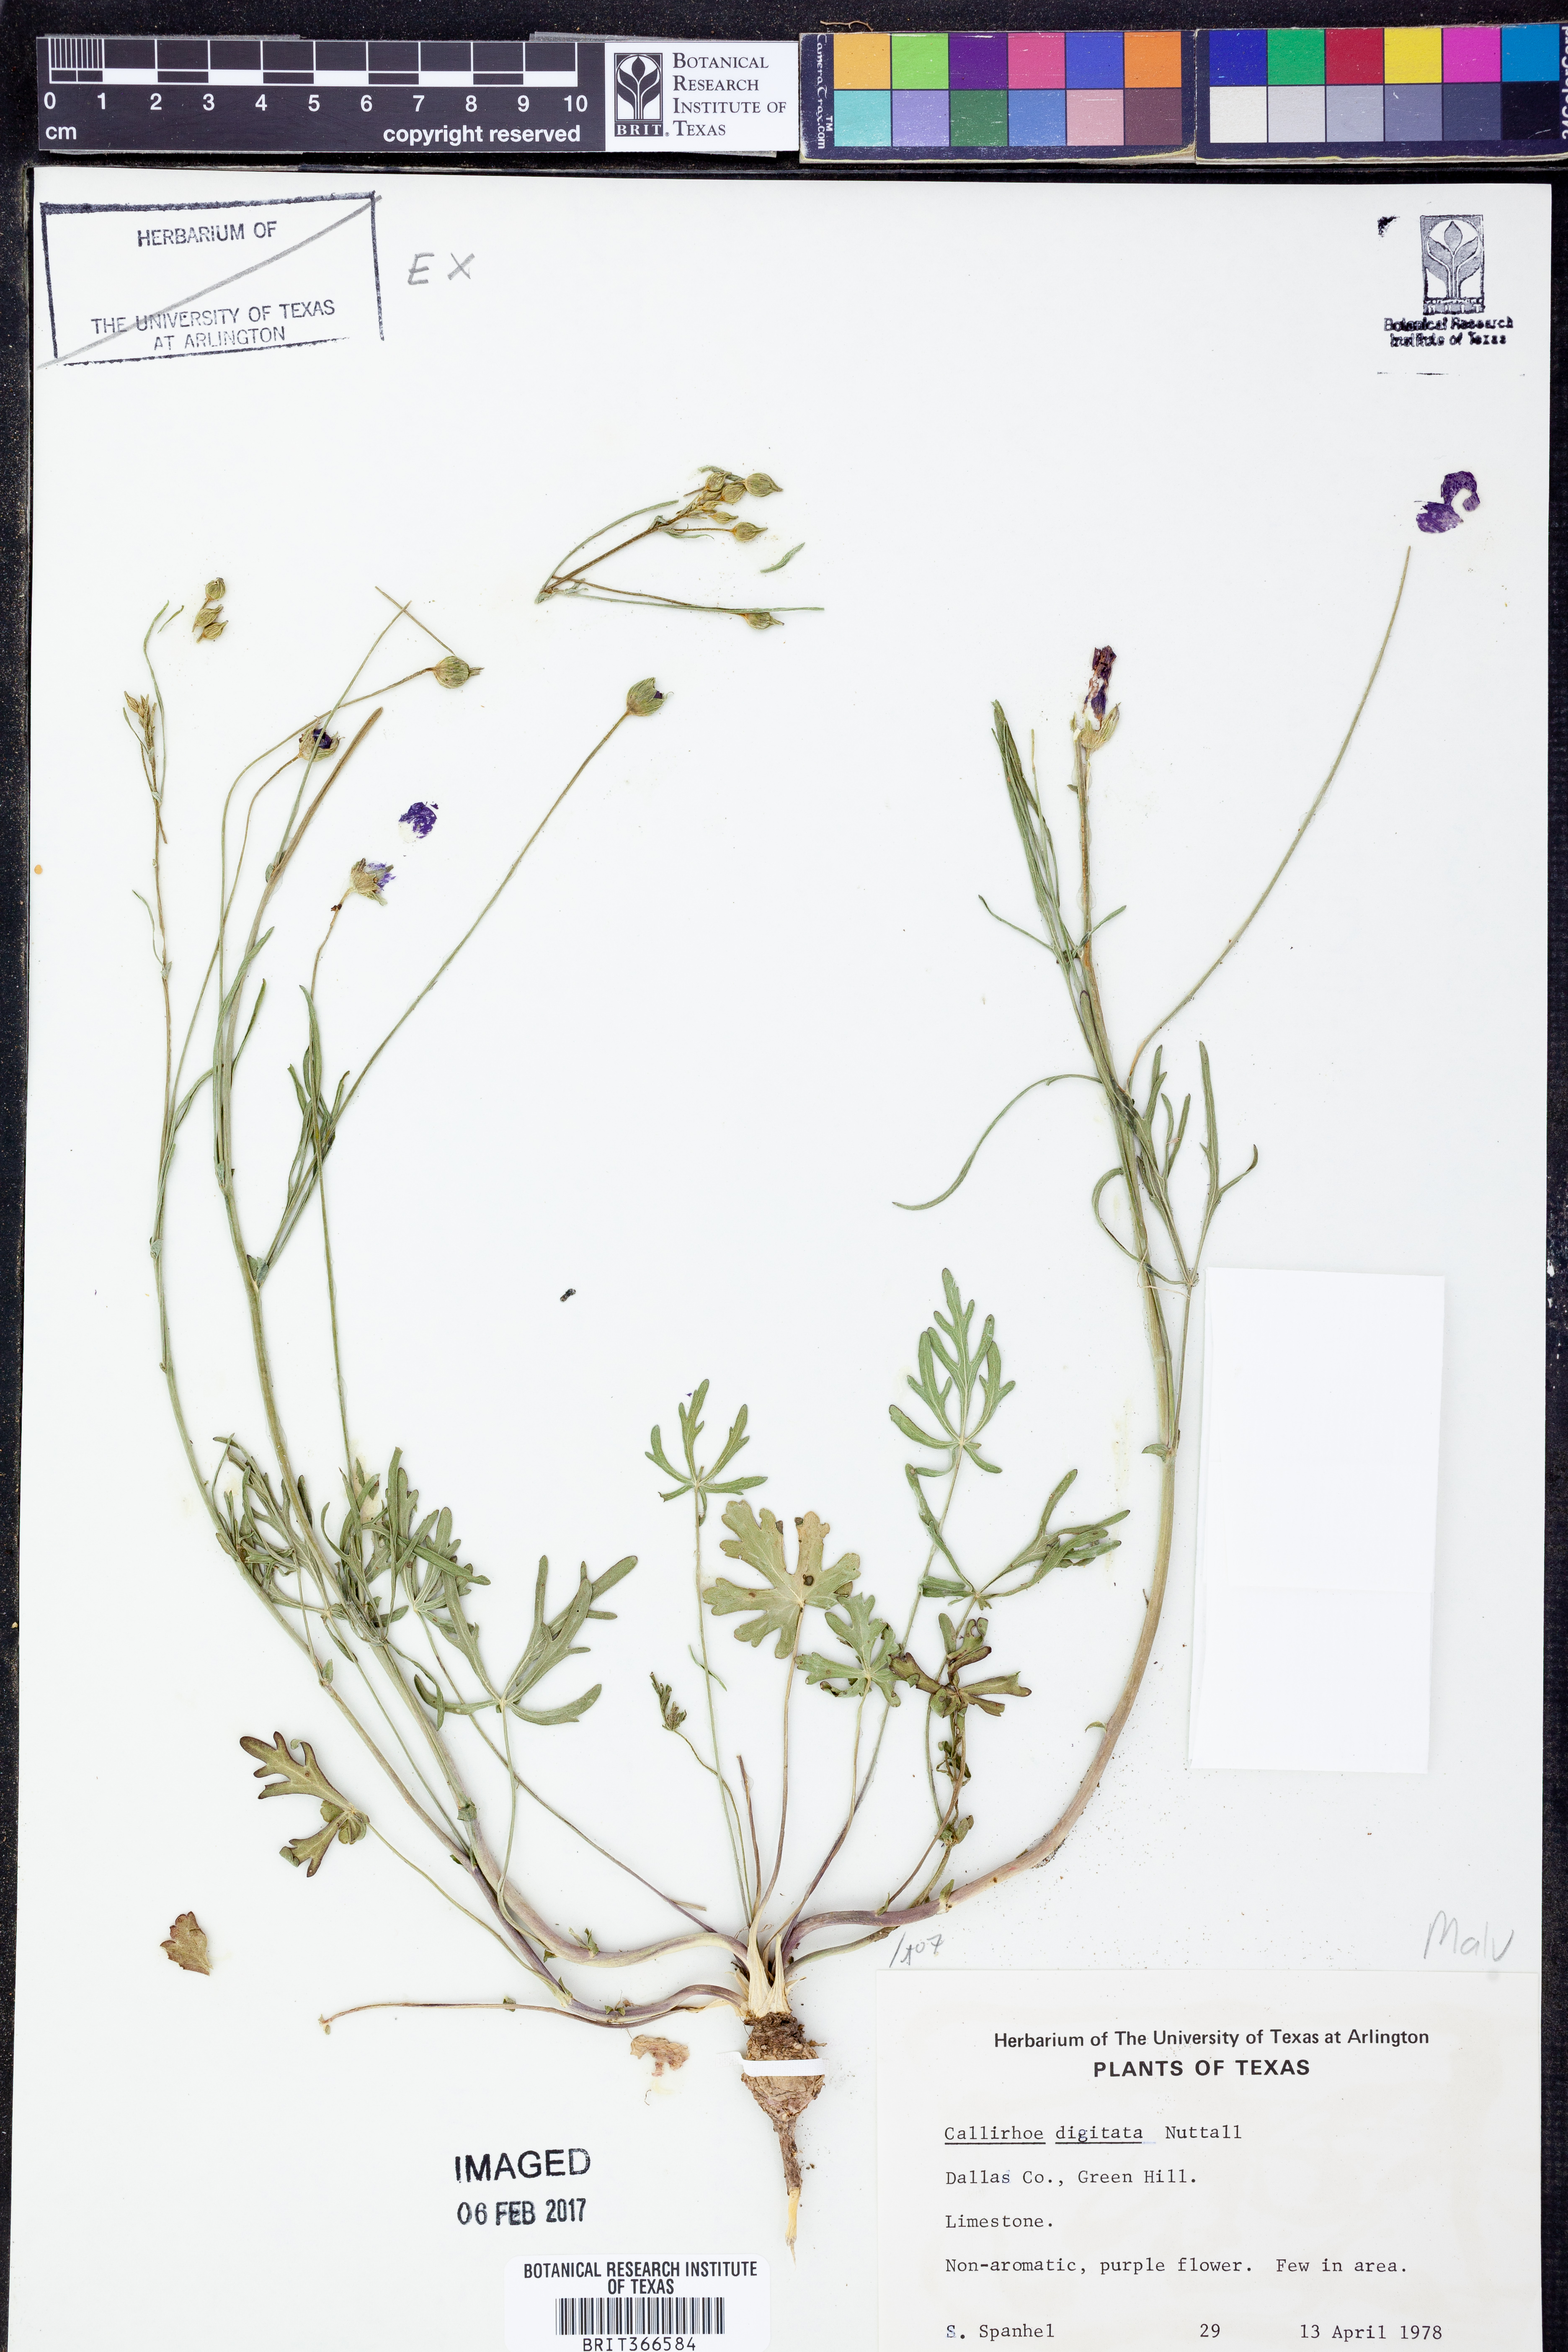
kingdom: Plantae
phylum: Tracheophyta
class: Magnoliopsida
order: Malvales
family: Malvaceae
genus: Callirhoe
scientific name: Callirhoe digitata
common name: Finger poppy-mallow
